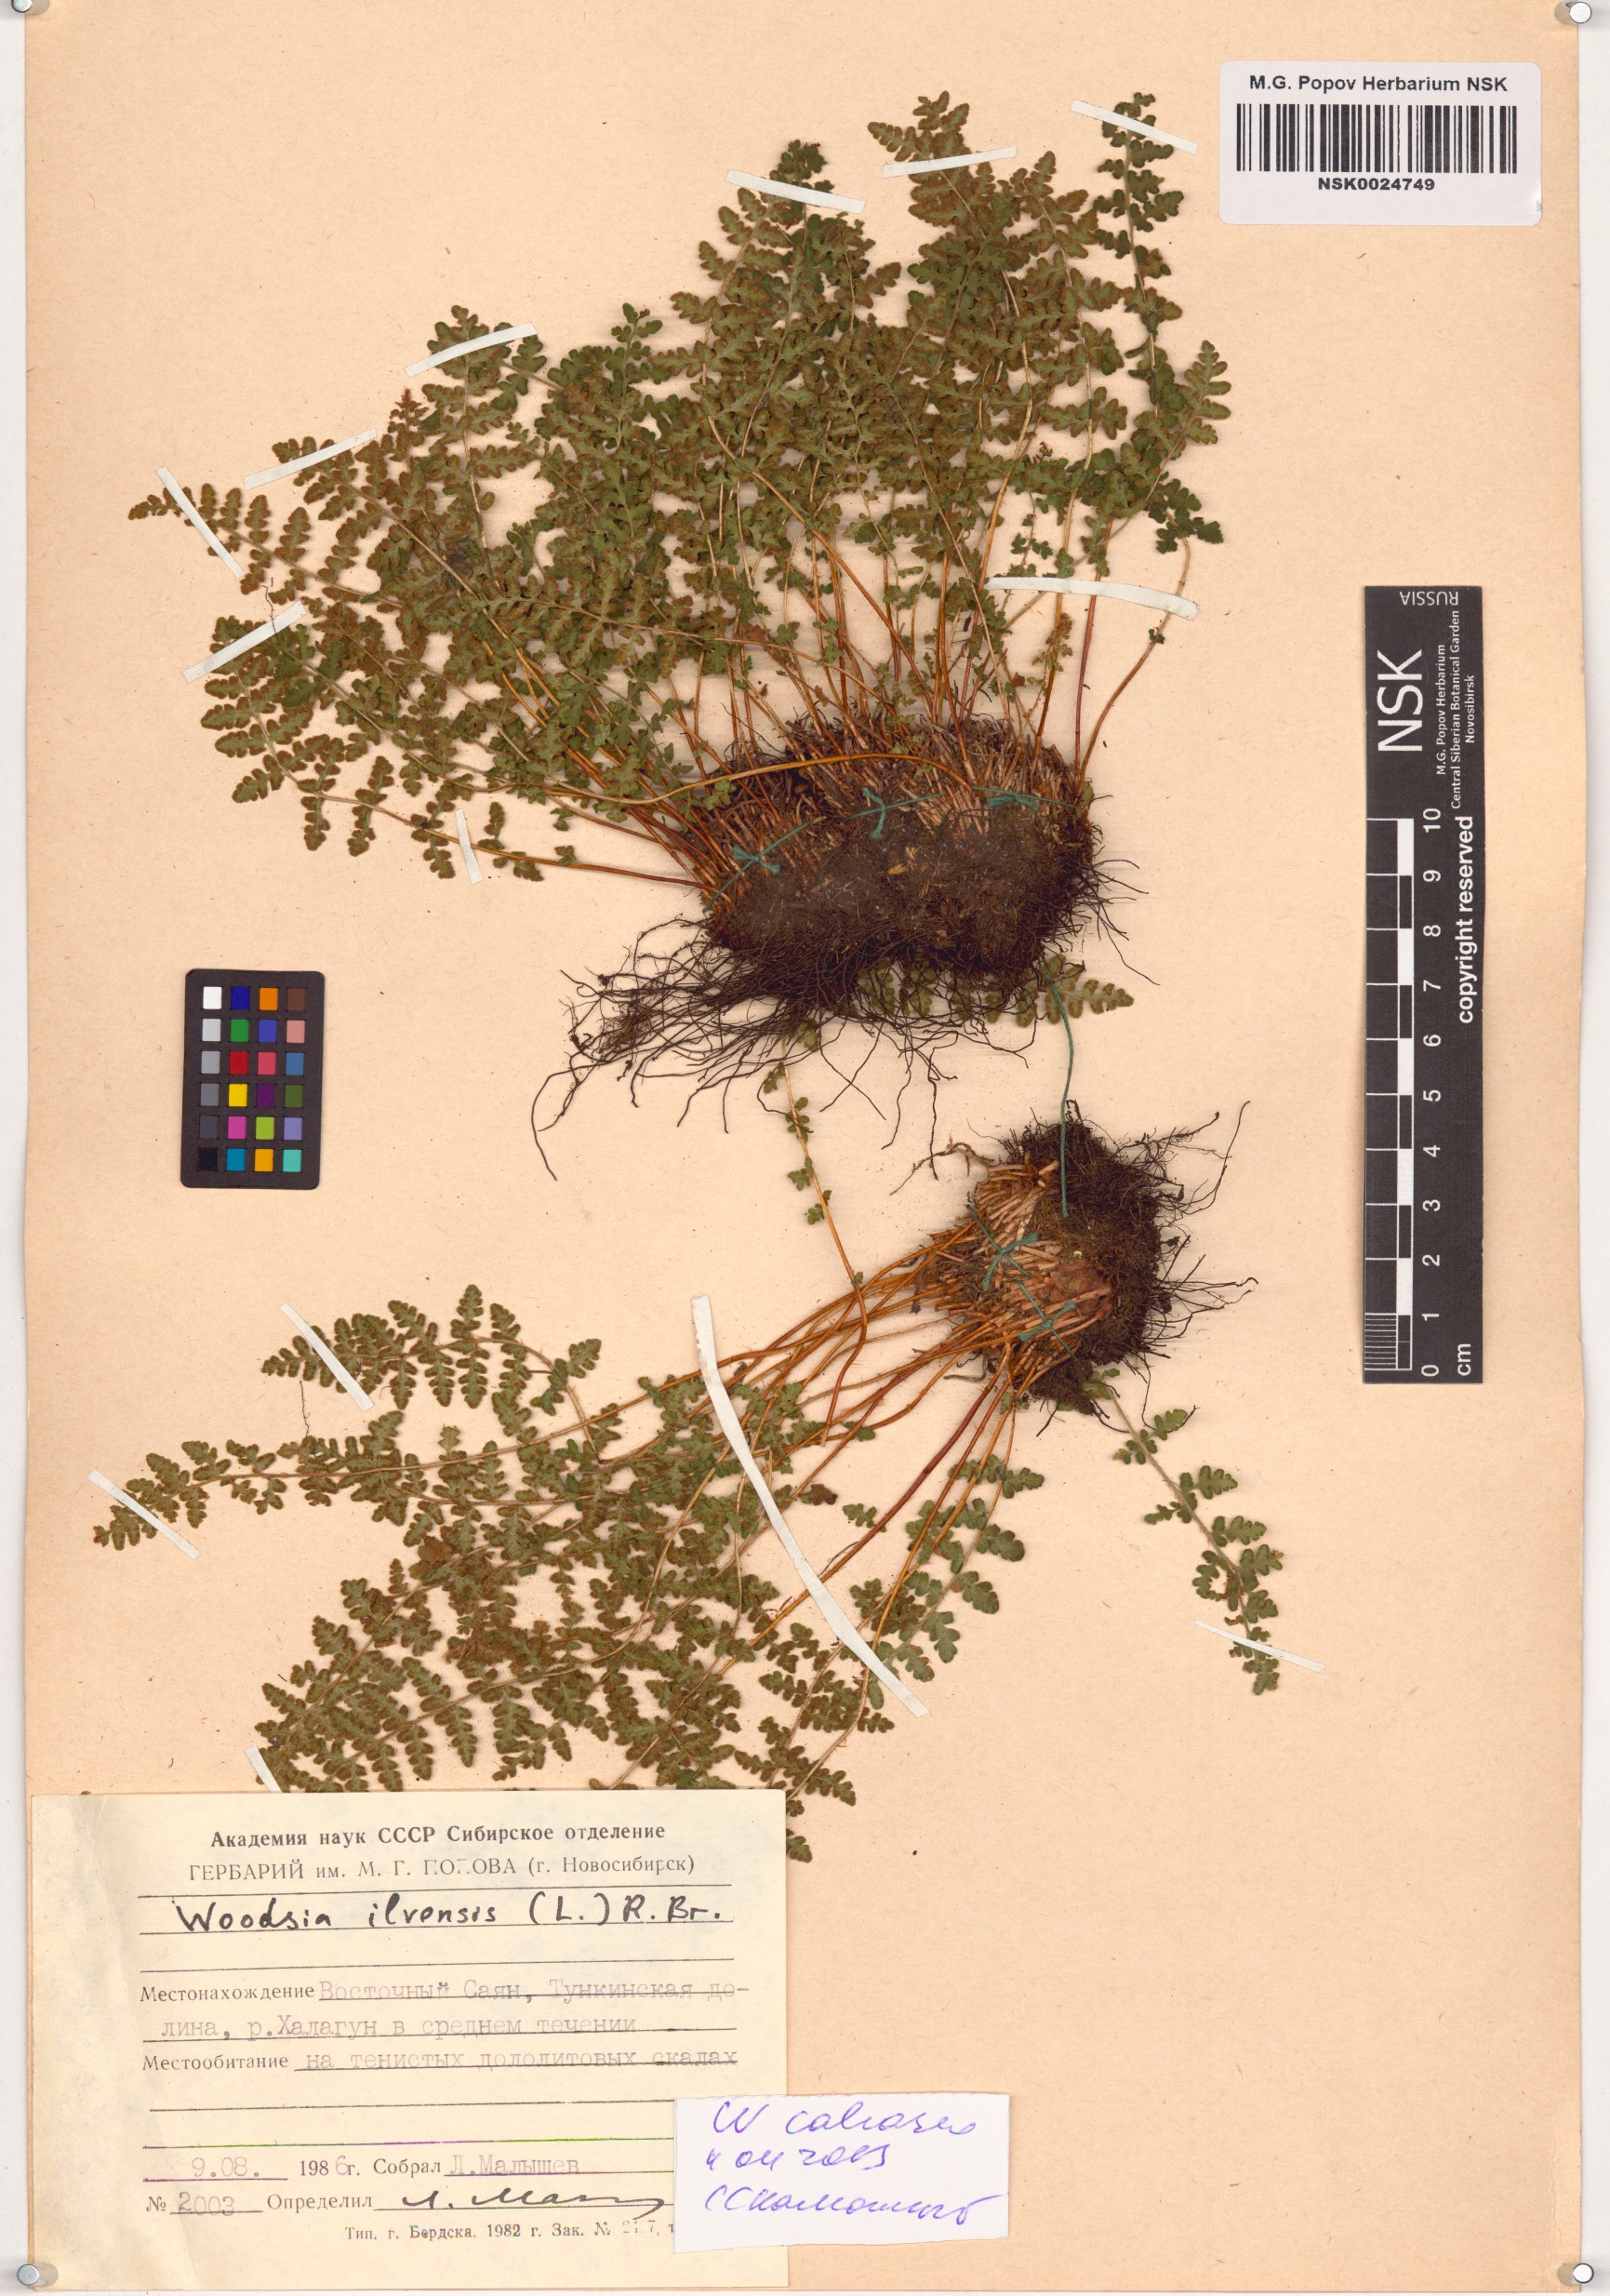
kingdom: Plantae
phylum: Tracheophyta
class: Polypodiopsida
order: Polypodiales
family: Woodsiaceae
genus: Woodsia
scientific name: Woodsia calcarea
